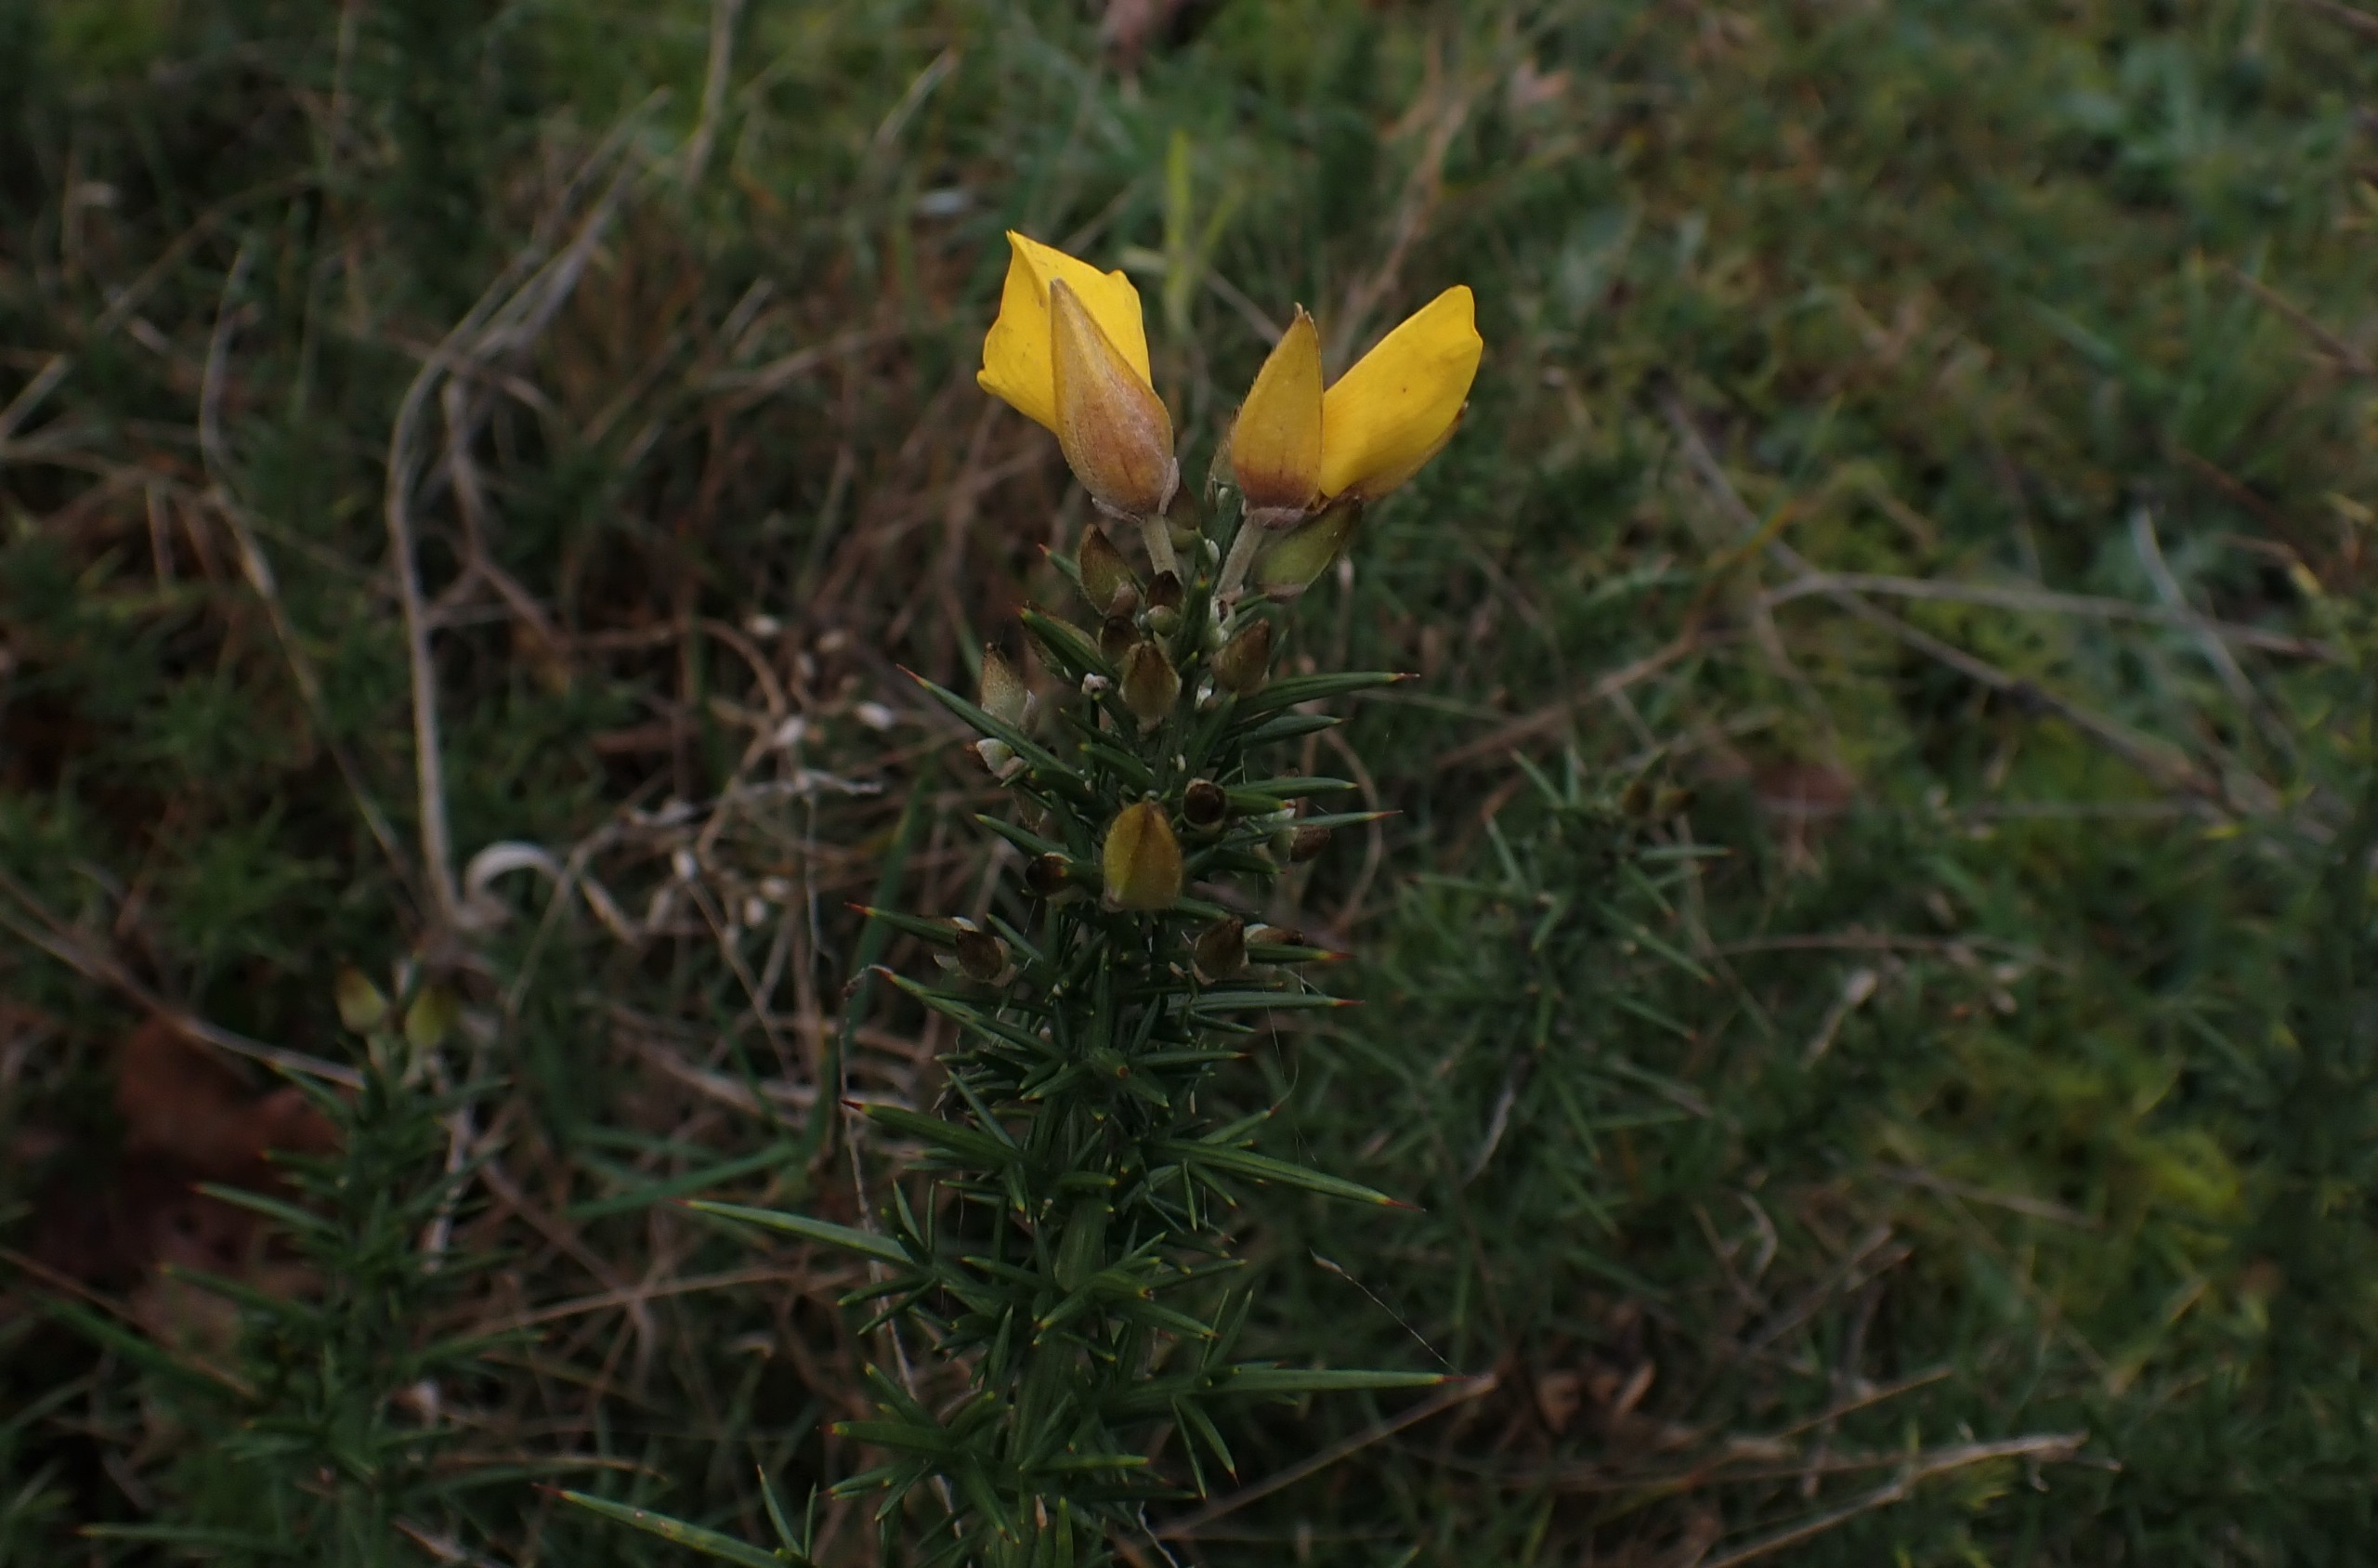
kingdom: Plantae
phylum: Tracheophyta
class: Magnoliopsida
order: Fabales
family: Fabaceae
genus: Ulex
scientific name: Ulex europaeus
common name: Tornblad
